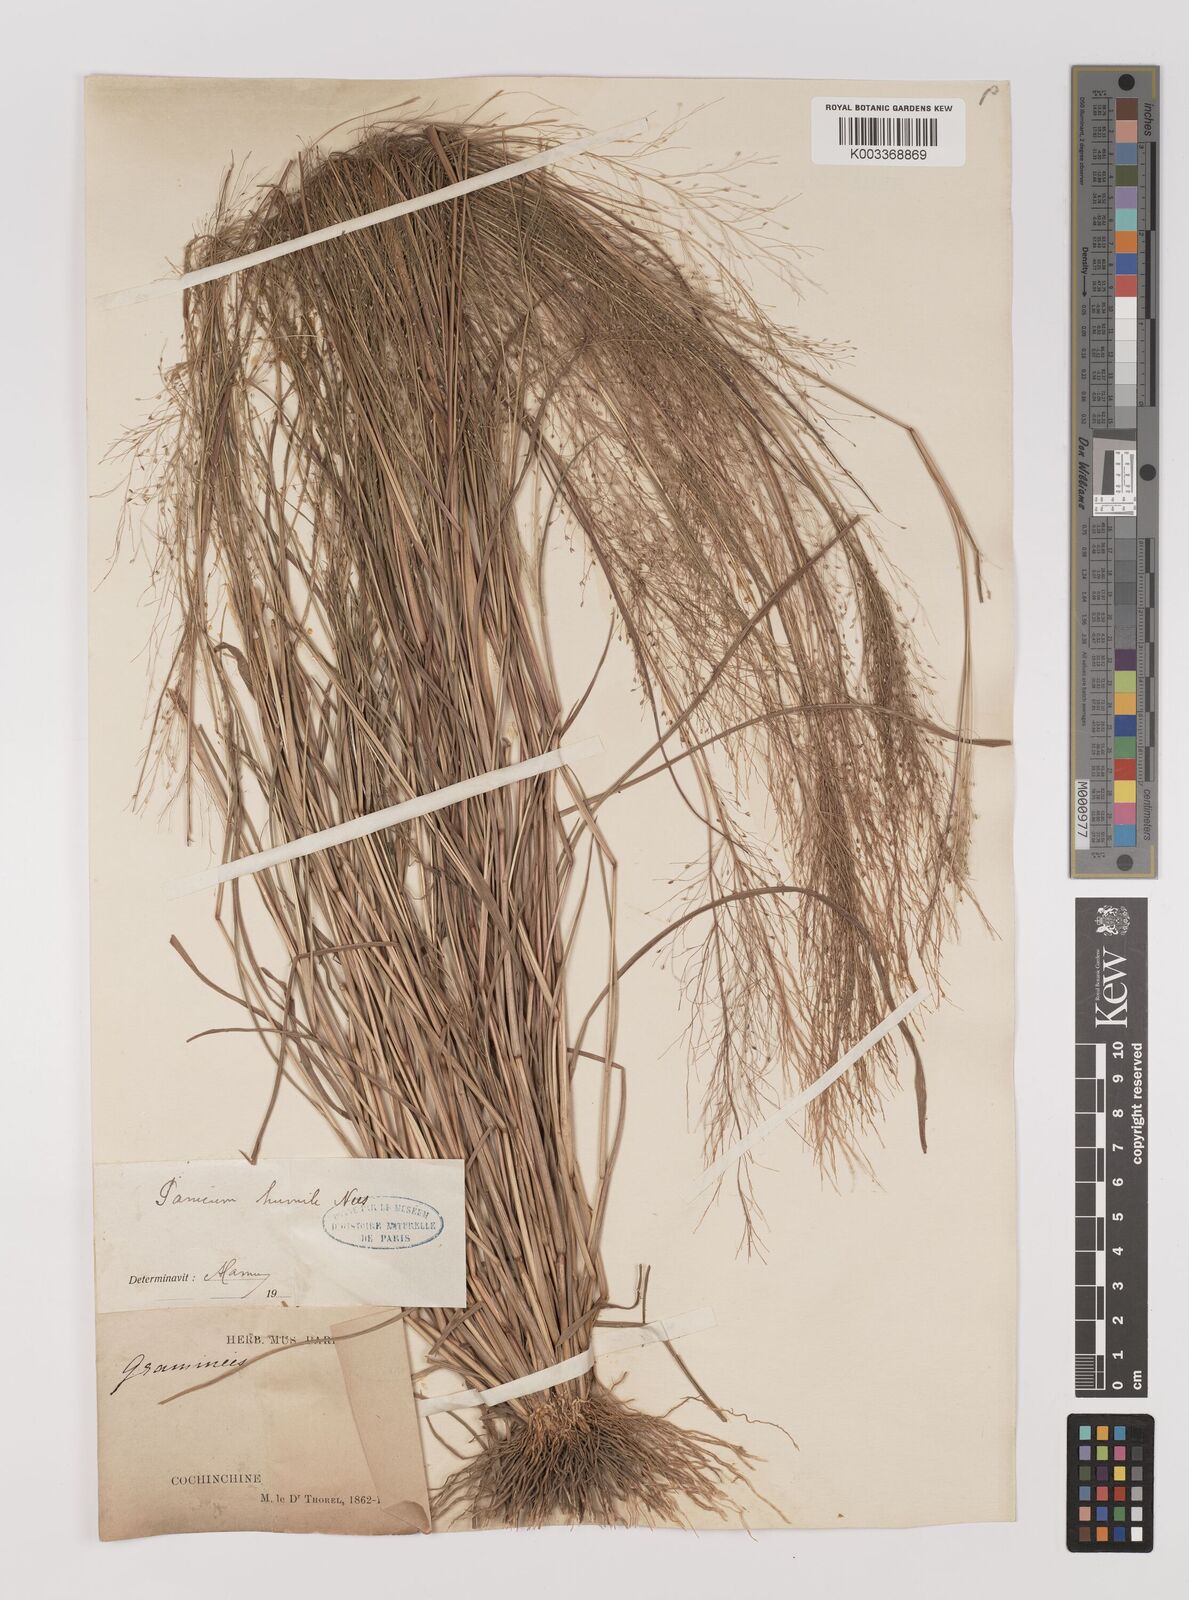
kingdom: Plantae
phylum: Tracheophyta
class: Liliopsida
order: Poales
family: Poaceae
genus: Panicum
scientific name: Panicum humile
